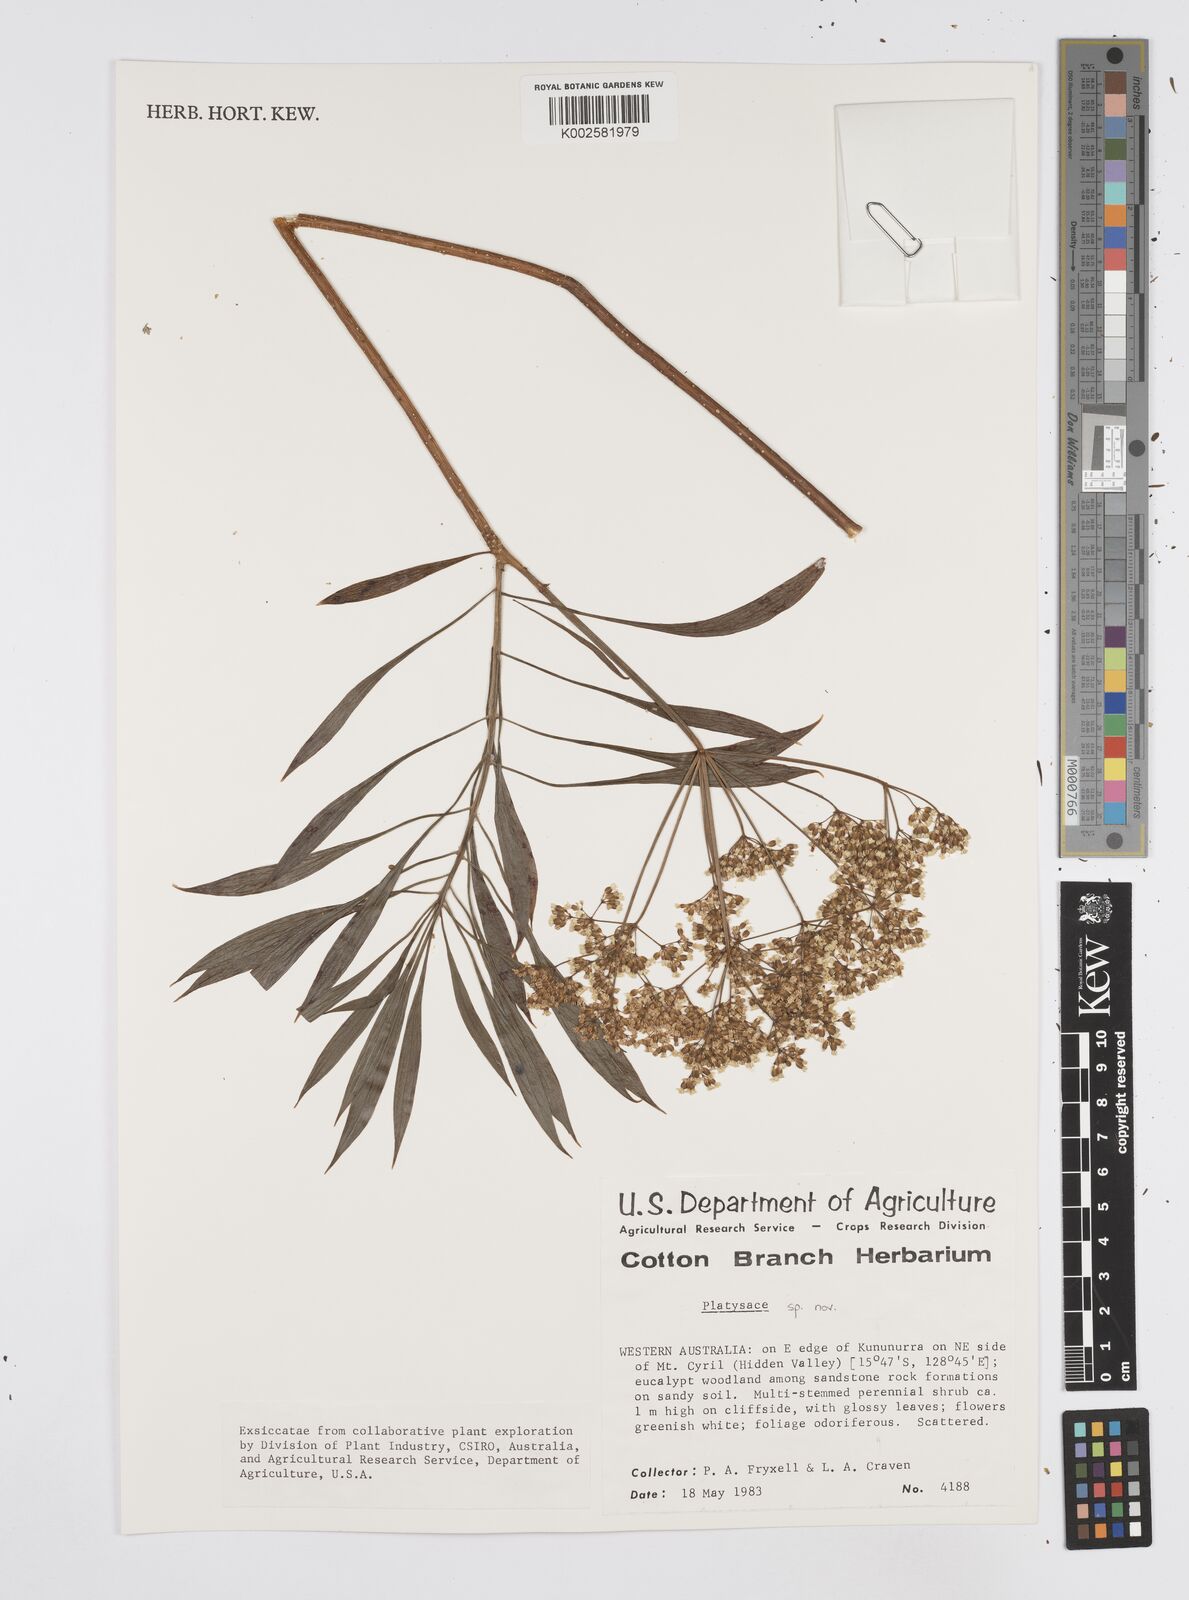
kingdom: Plantae
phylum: Tracheophyta
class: Magnoliopsida
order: Apiales
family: Apiaceae
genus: Platysace
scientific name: Platysace
